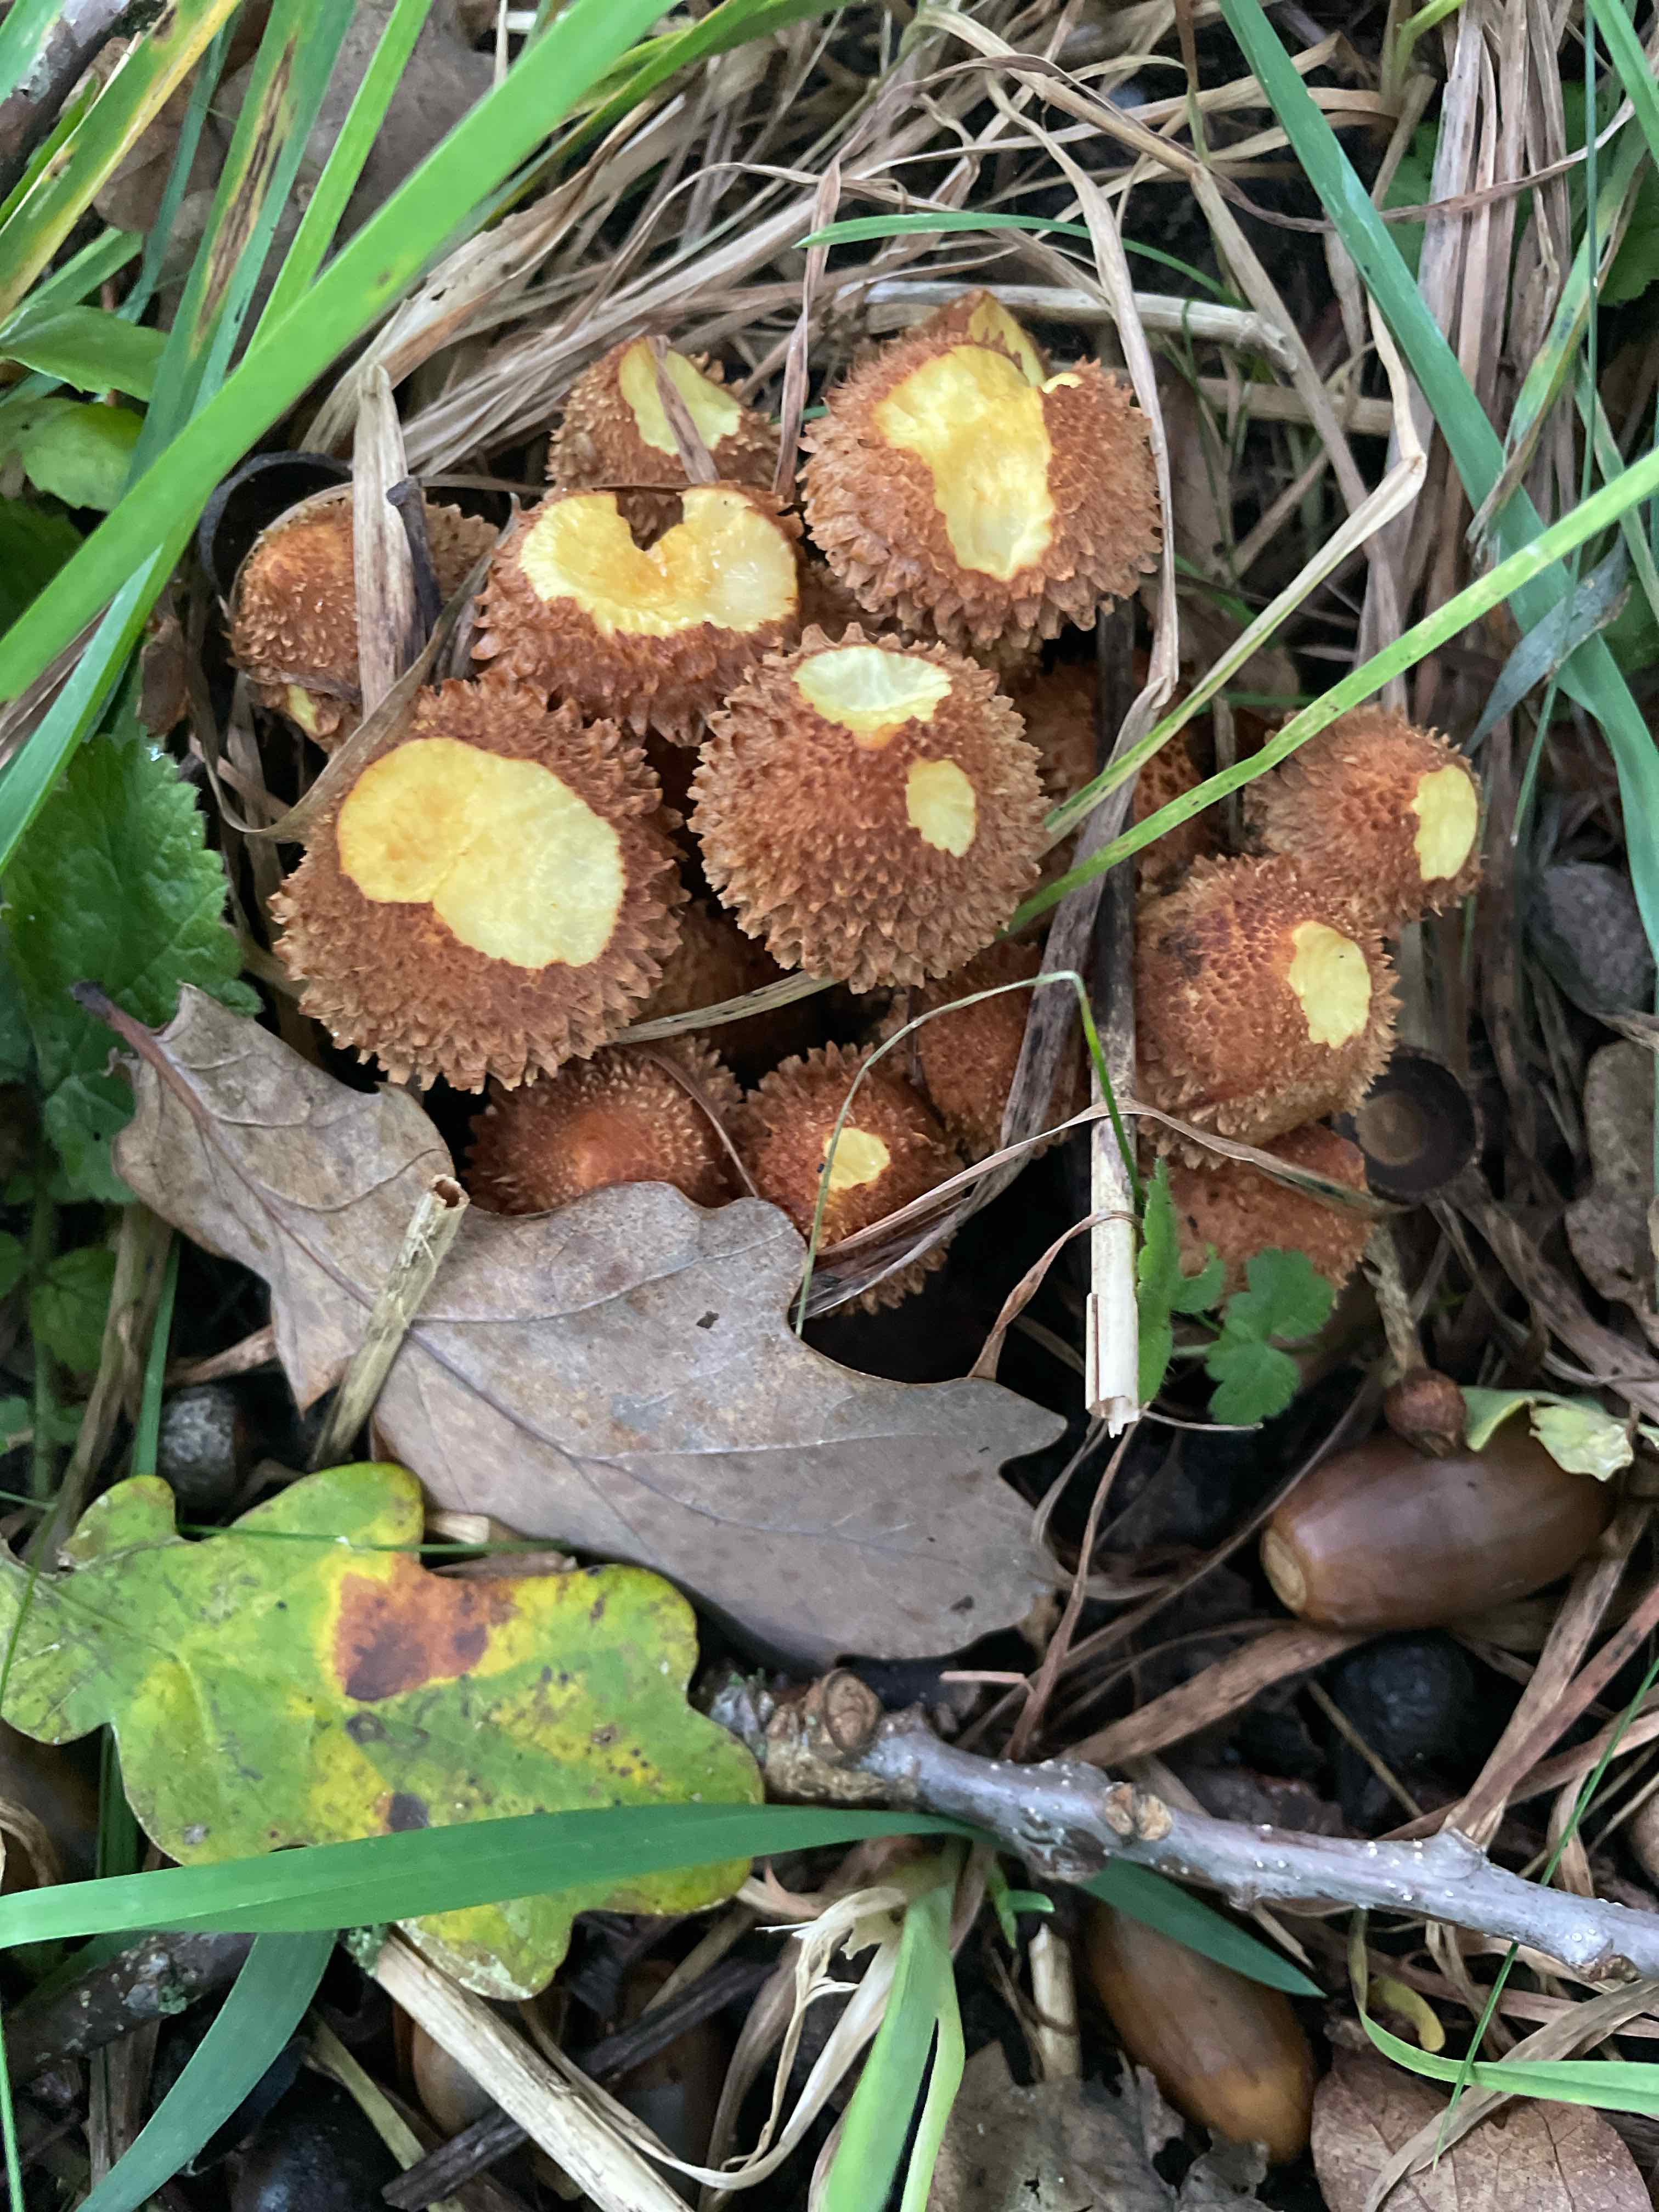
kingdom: Fungi
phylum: Basidiomycota
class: Agaricomycetes
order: Agaricales
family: Strophariaceae
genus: Pholiota
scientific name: Pholiota squarrosa
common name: krumskællet skælhat
